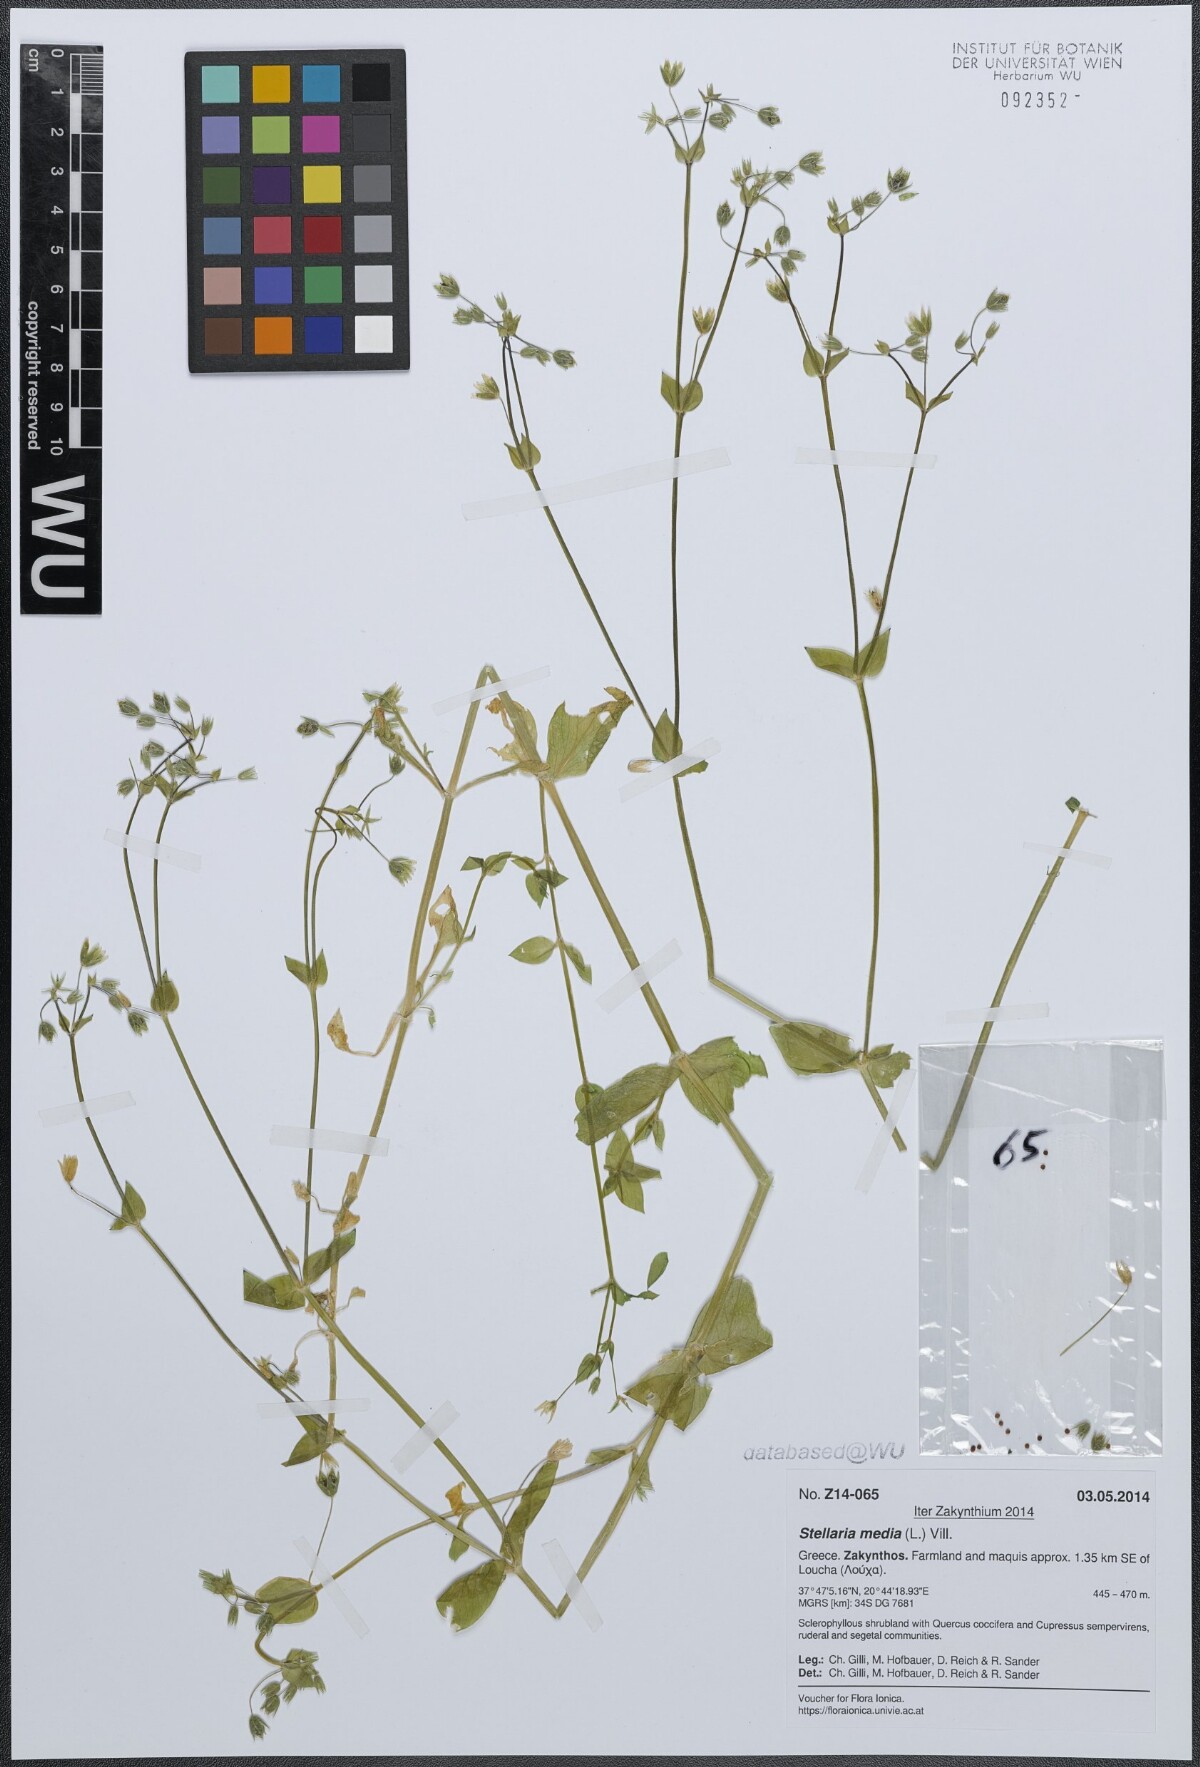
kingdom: Plantae
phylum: Tracheophyta
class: Magnoliopsida
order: Caryophyllales
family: Caryophyllaceae
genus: Stellaria
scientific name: Stellaria media
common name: Common chickweed
